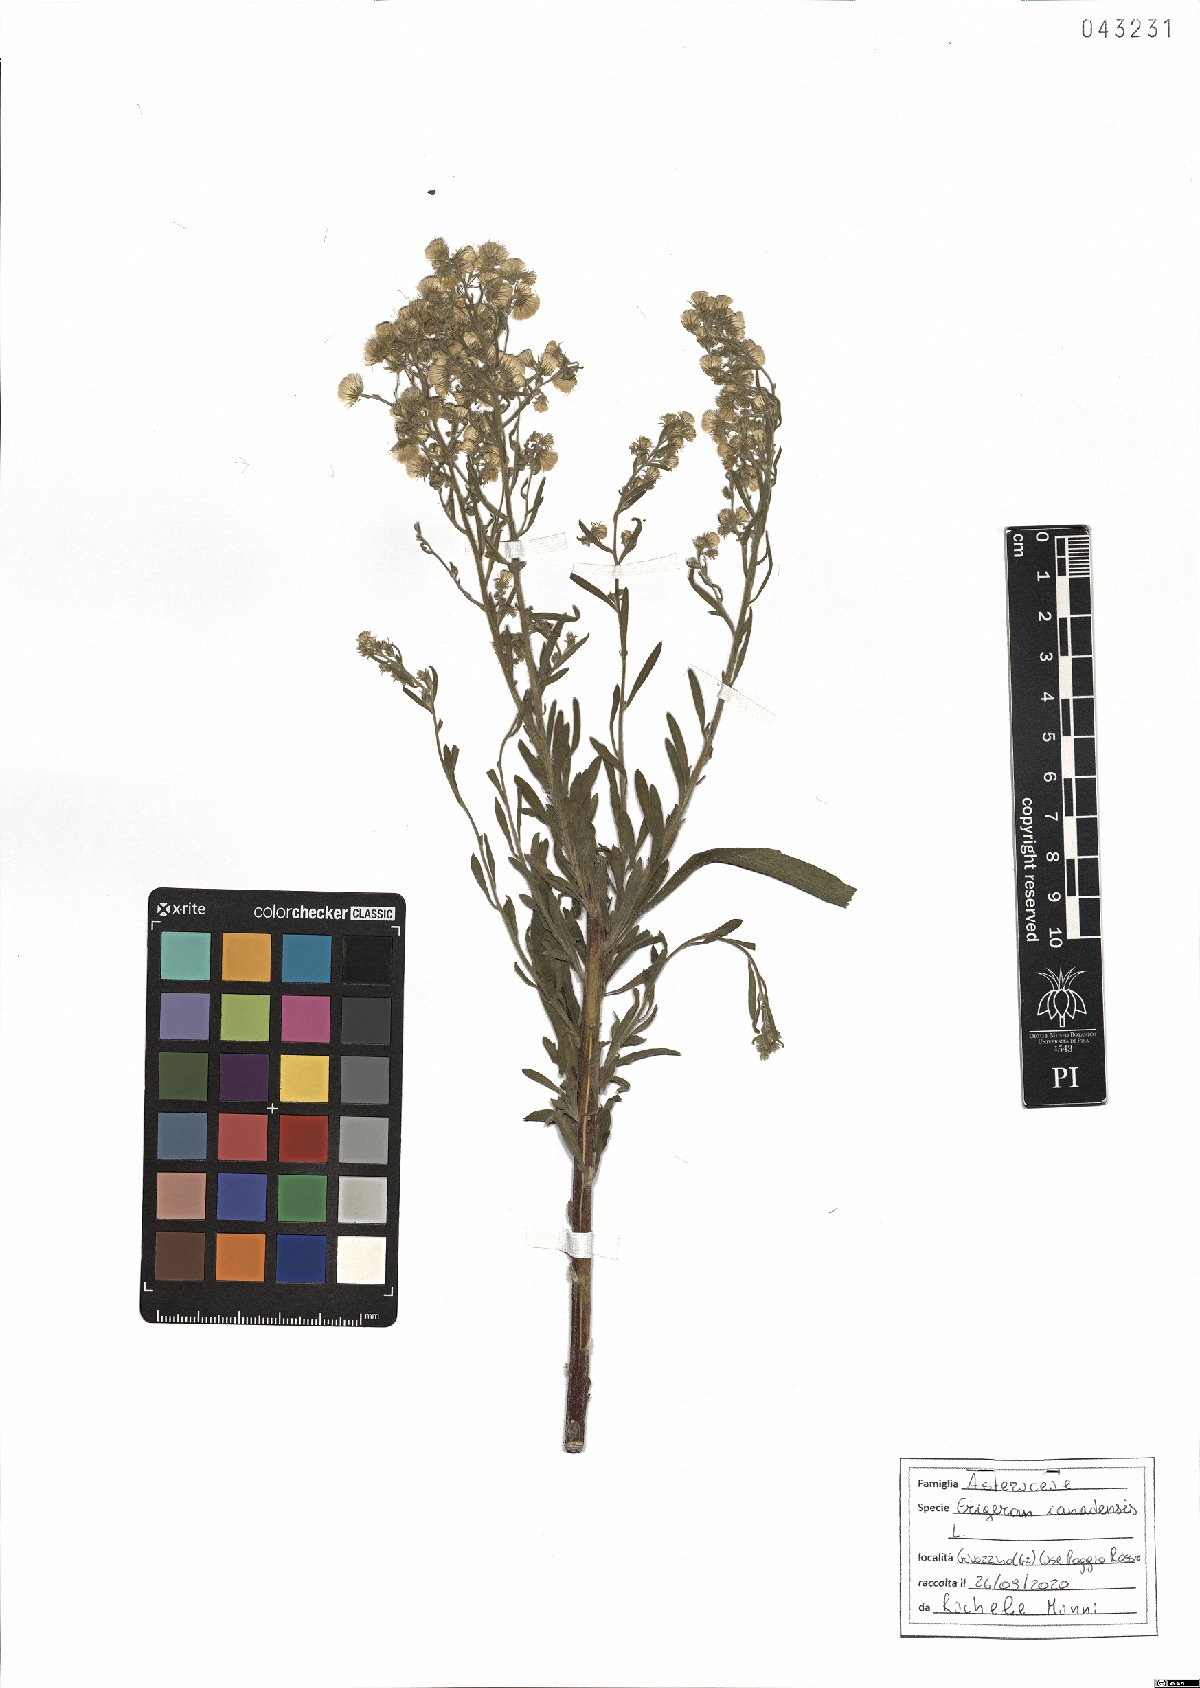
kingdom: Plantae
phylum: Tracheophyta
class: Magnoliopsida
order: Asterales
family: Asteraceae
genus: Erigeron
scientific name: Erigeron canadensis
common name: Canadian fleabane
